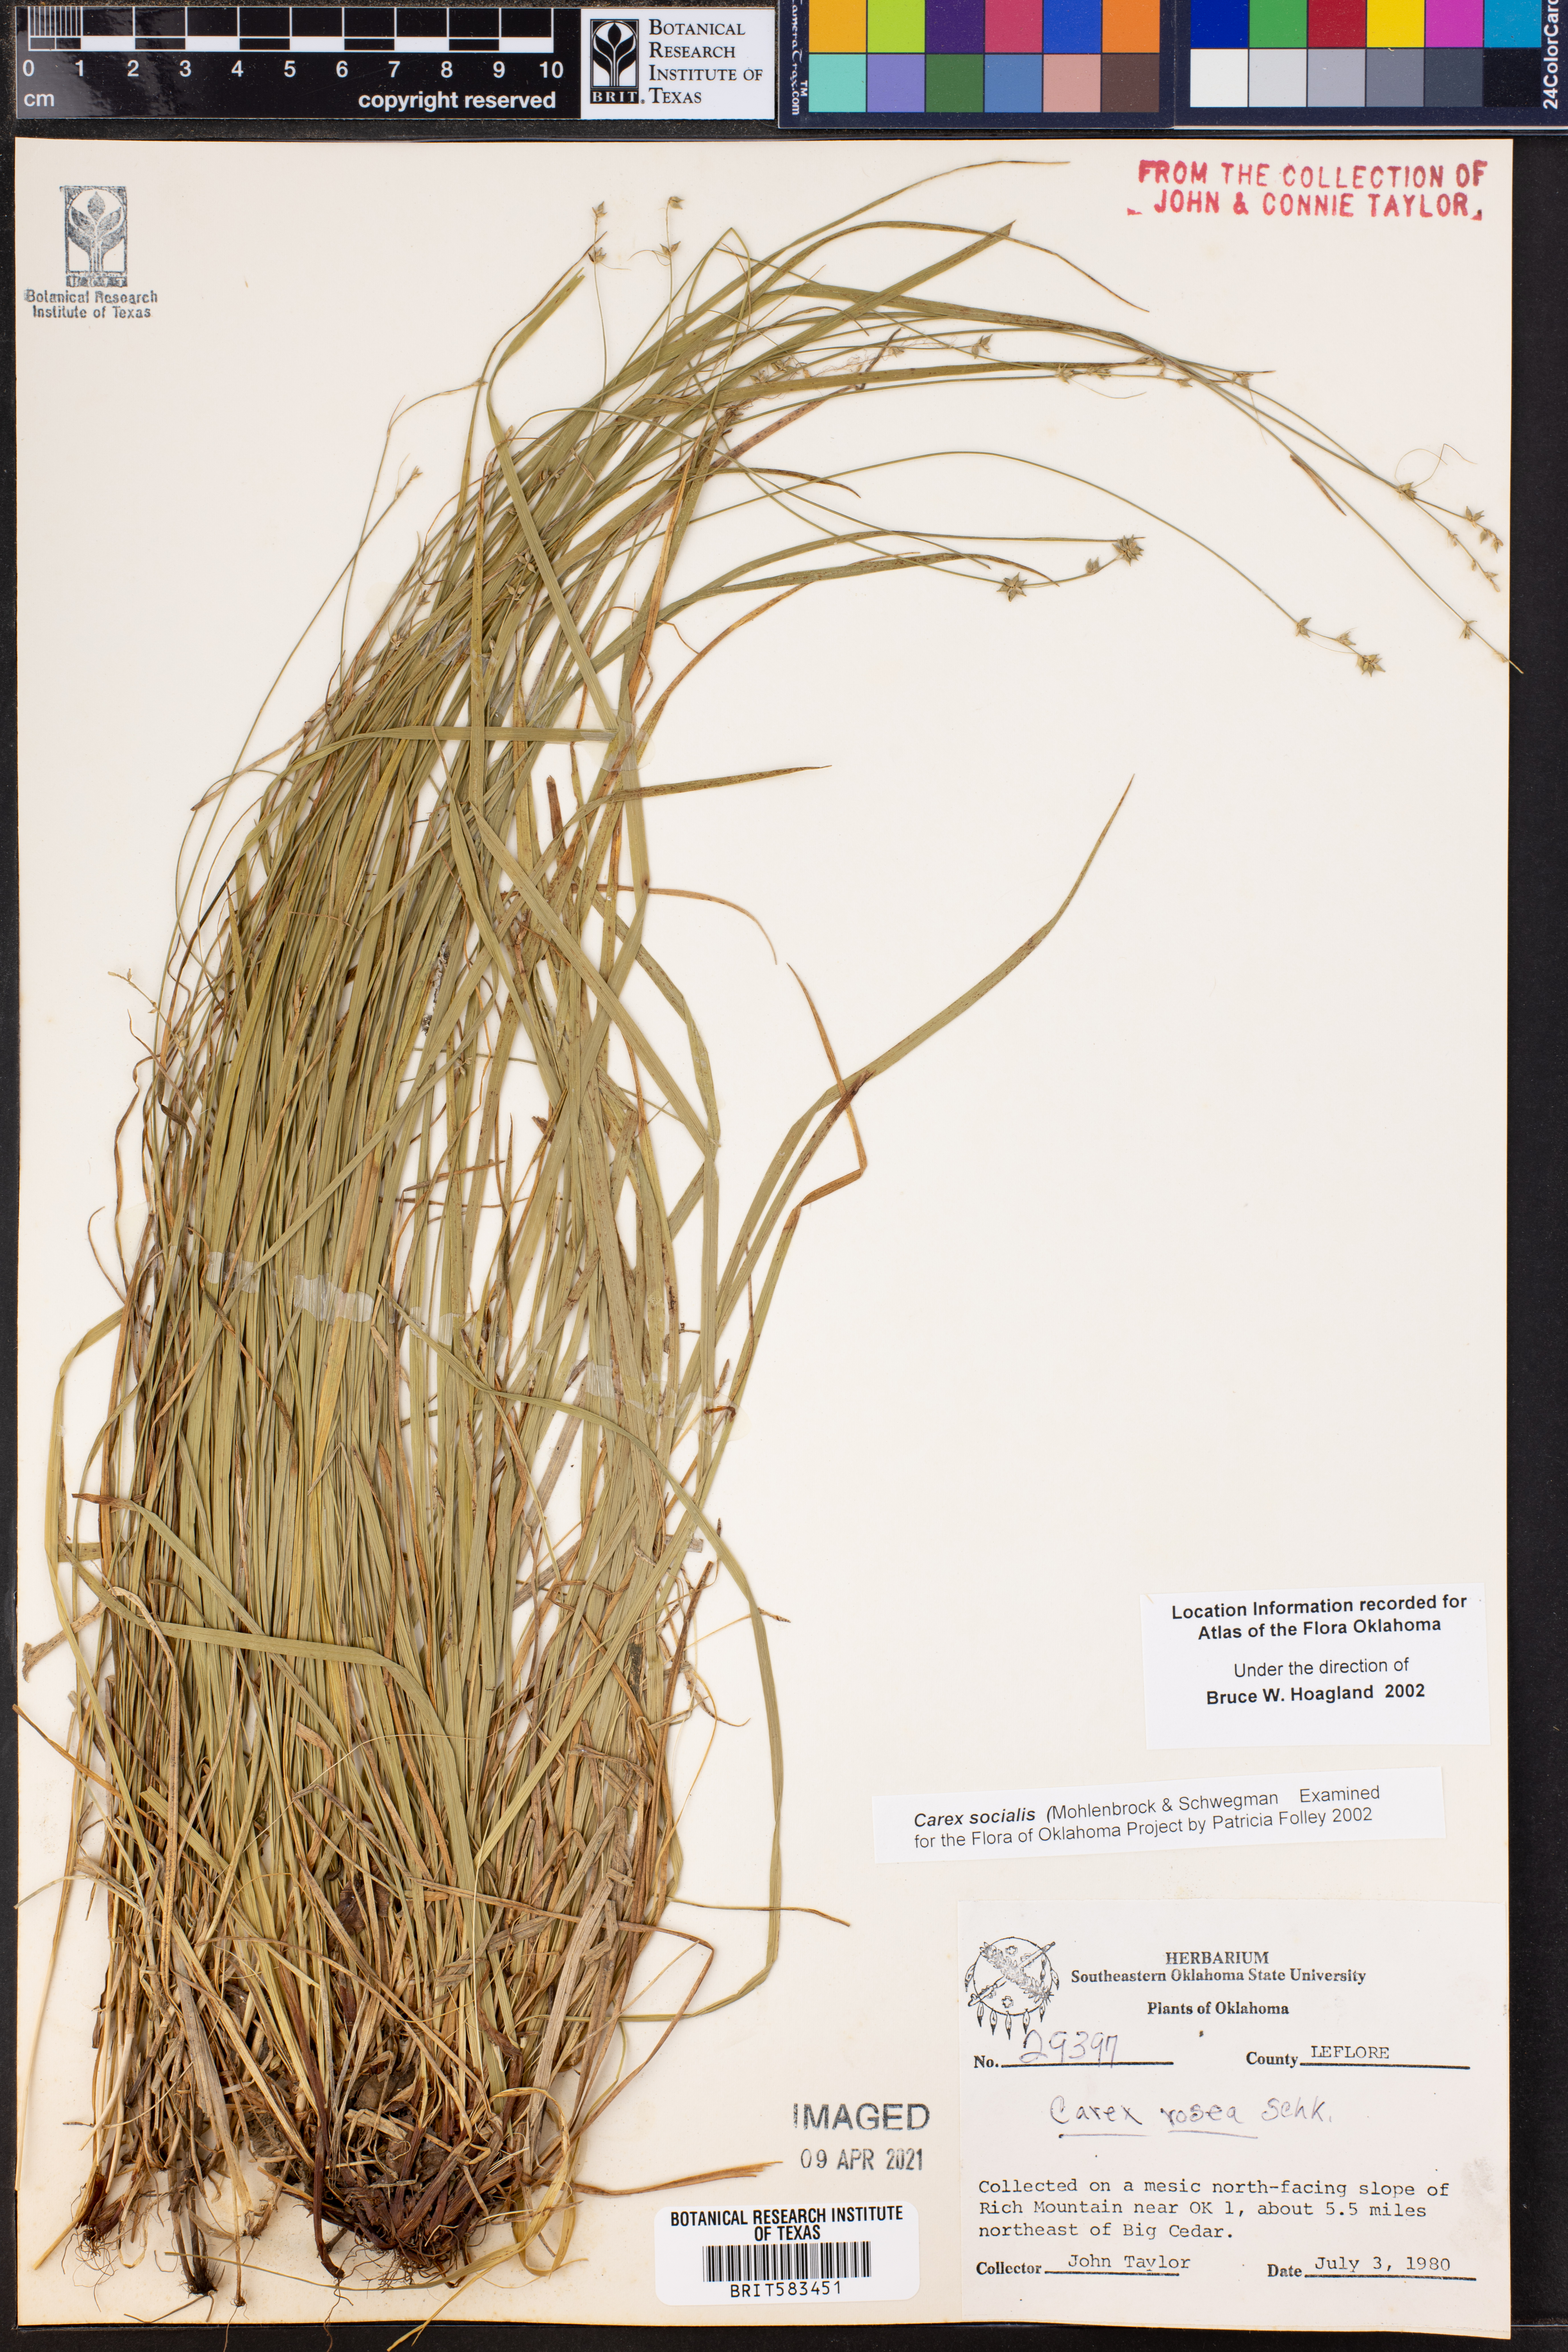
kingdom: Plantae
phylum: Tracheophyta
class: Liliopsida
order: Poales
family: Cyperaceae
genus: Carex
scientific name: Carex socialis
